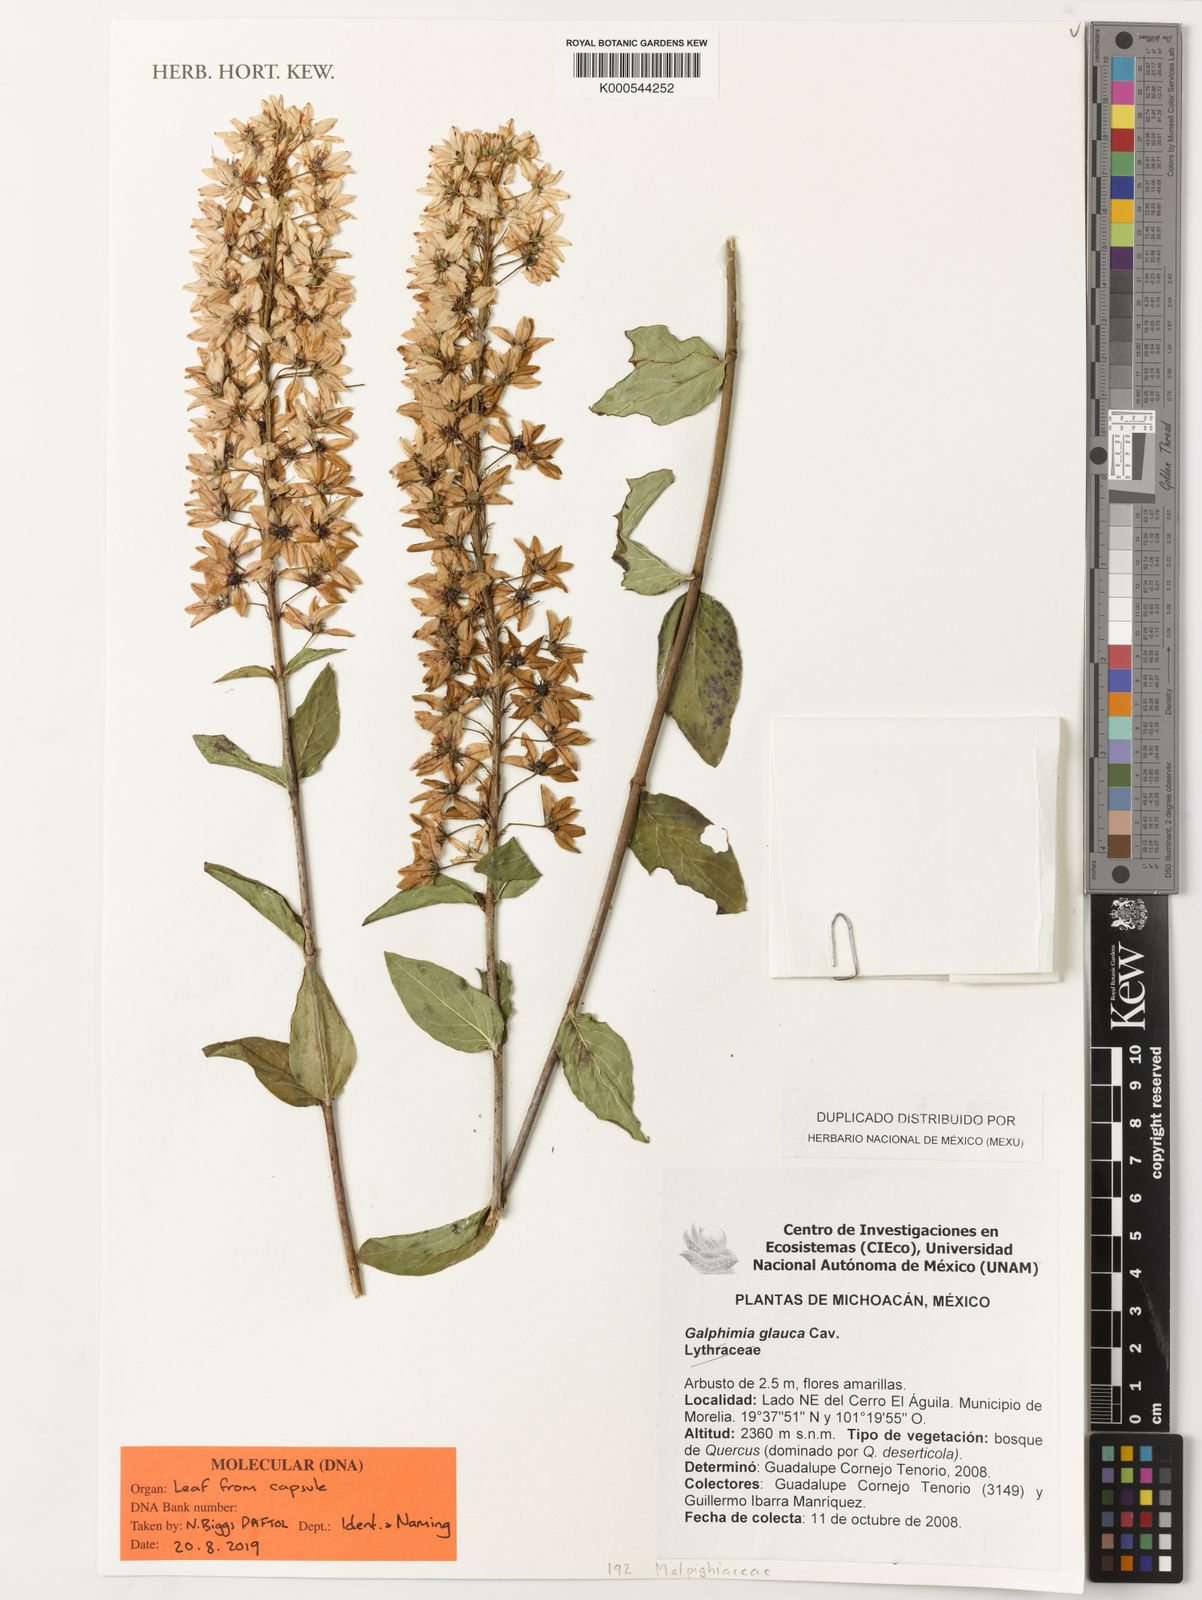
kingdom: Plantae
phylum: Tracheophyta
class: Magnoliopsida
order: Malpighiales
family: Malpighiaceae
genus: Galphimia
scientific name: Galphimia glauca
